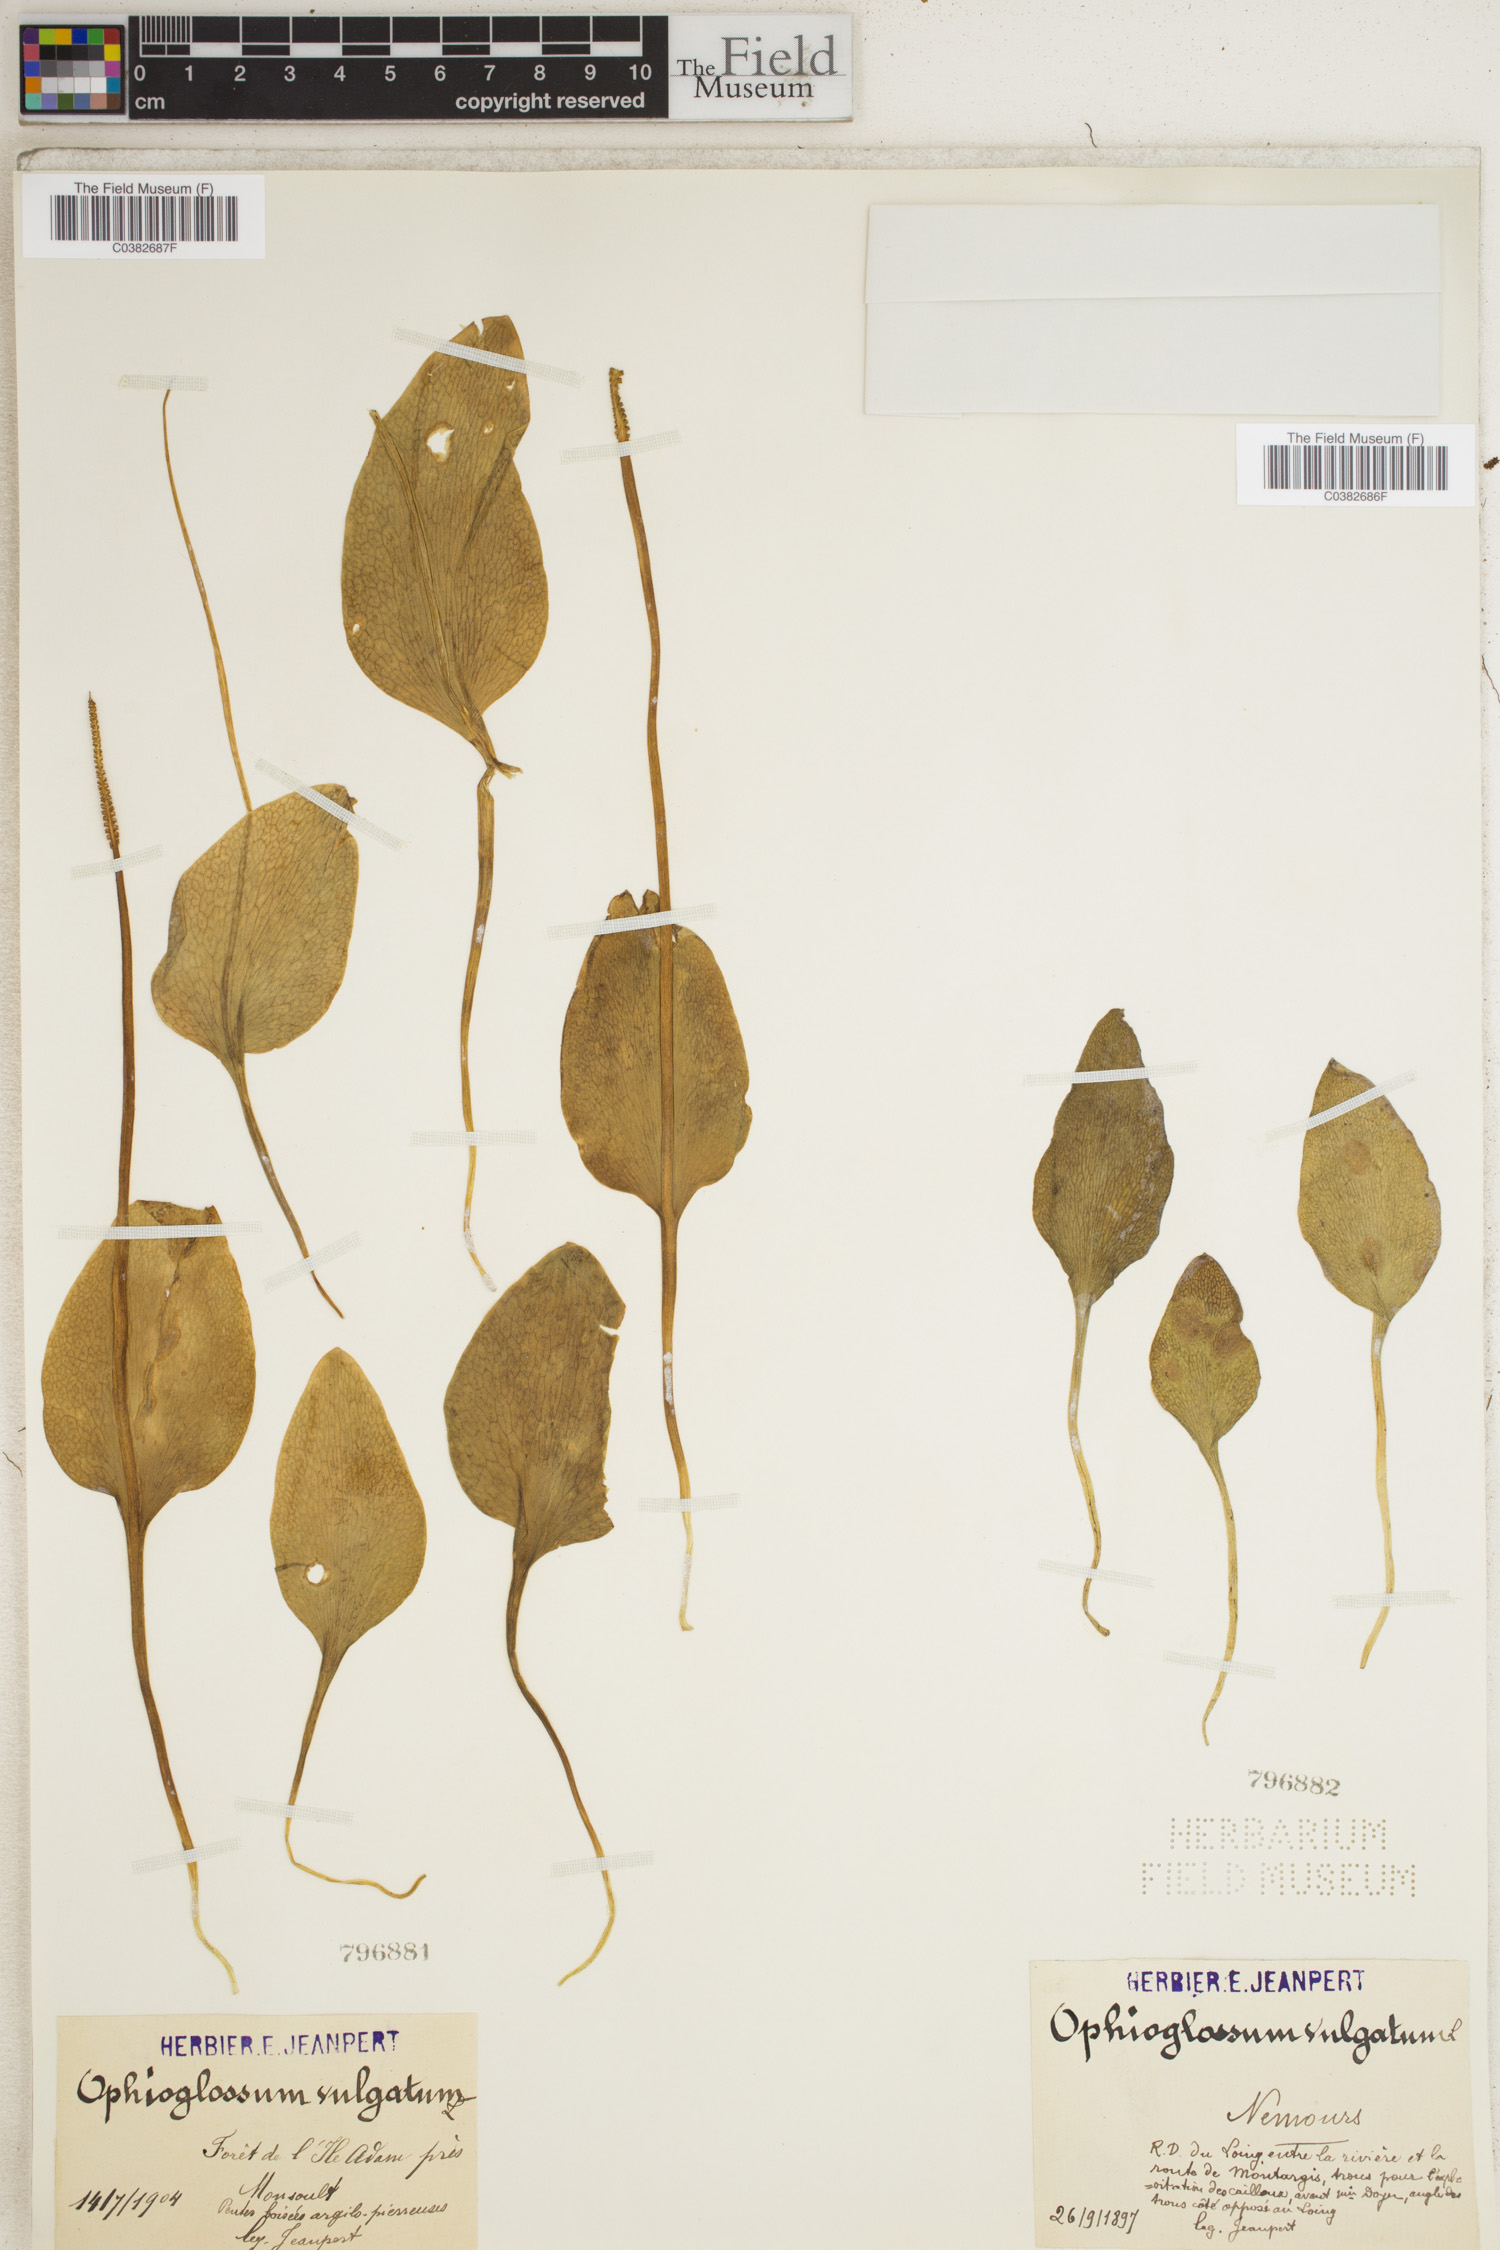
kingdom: Plantae
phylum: Tracheophyta
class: Polypodiopsida
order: Ophioglossales
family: Ophioglossaceae
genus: Ophioglossum
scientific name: Ophioglossum vulgatum
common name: Adder's-tongue
